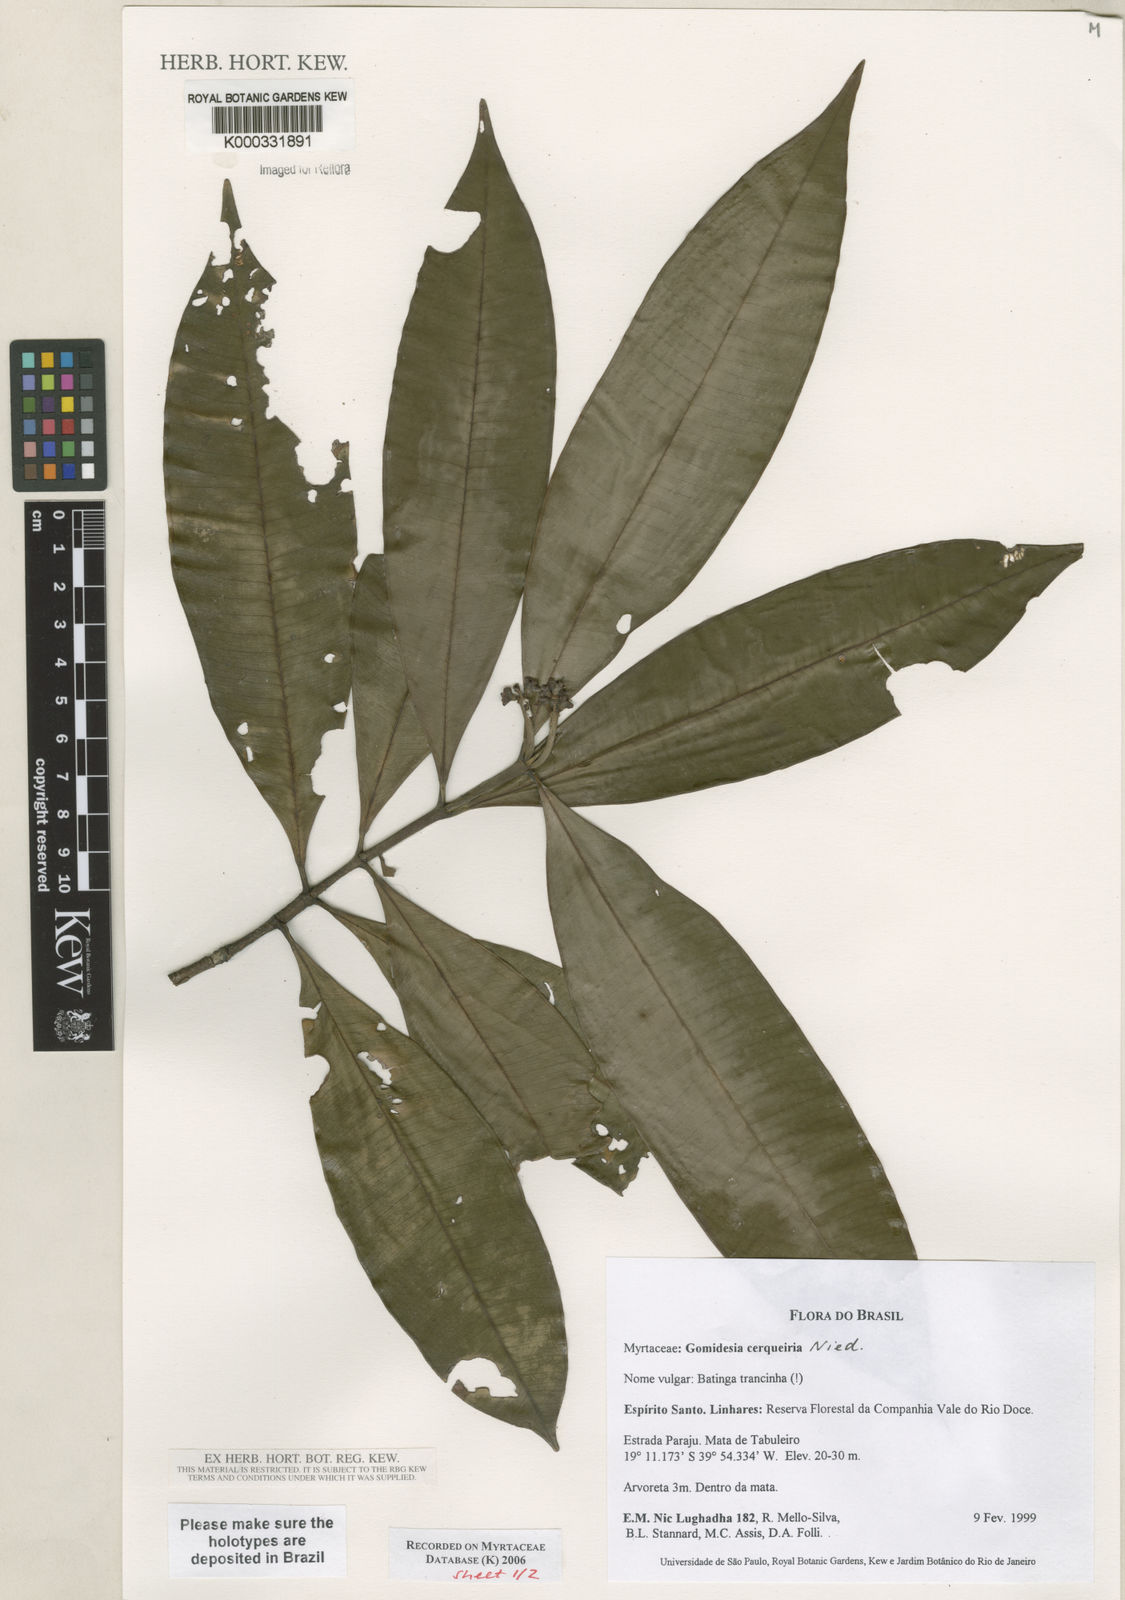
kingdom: Plantae
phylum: Tracheophyta
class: Magnoliopsida
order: Myrtales
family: Myrtaceae
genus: Myrcia
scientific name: Myrcia cerqueiria
